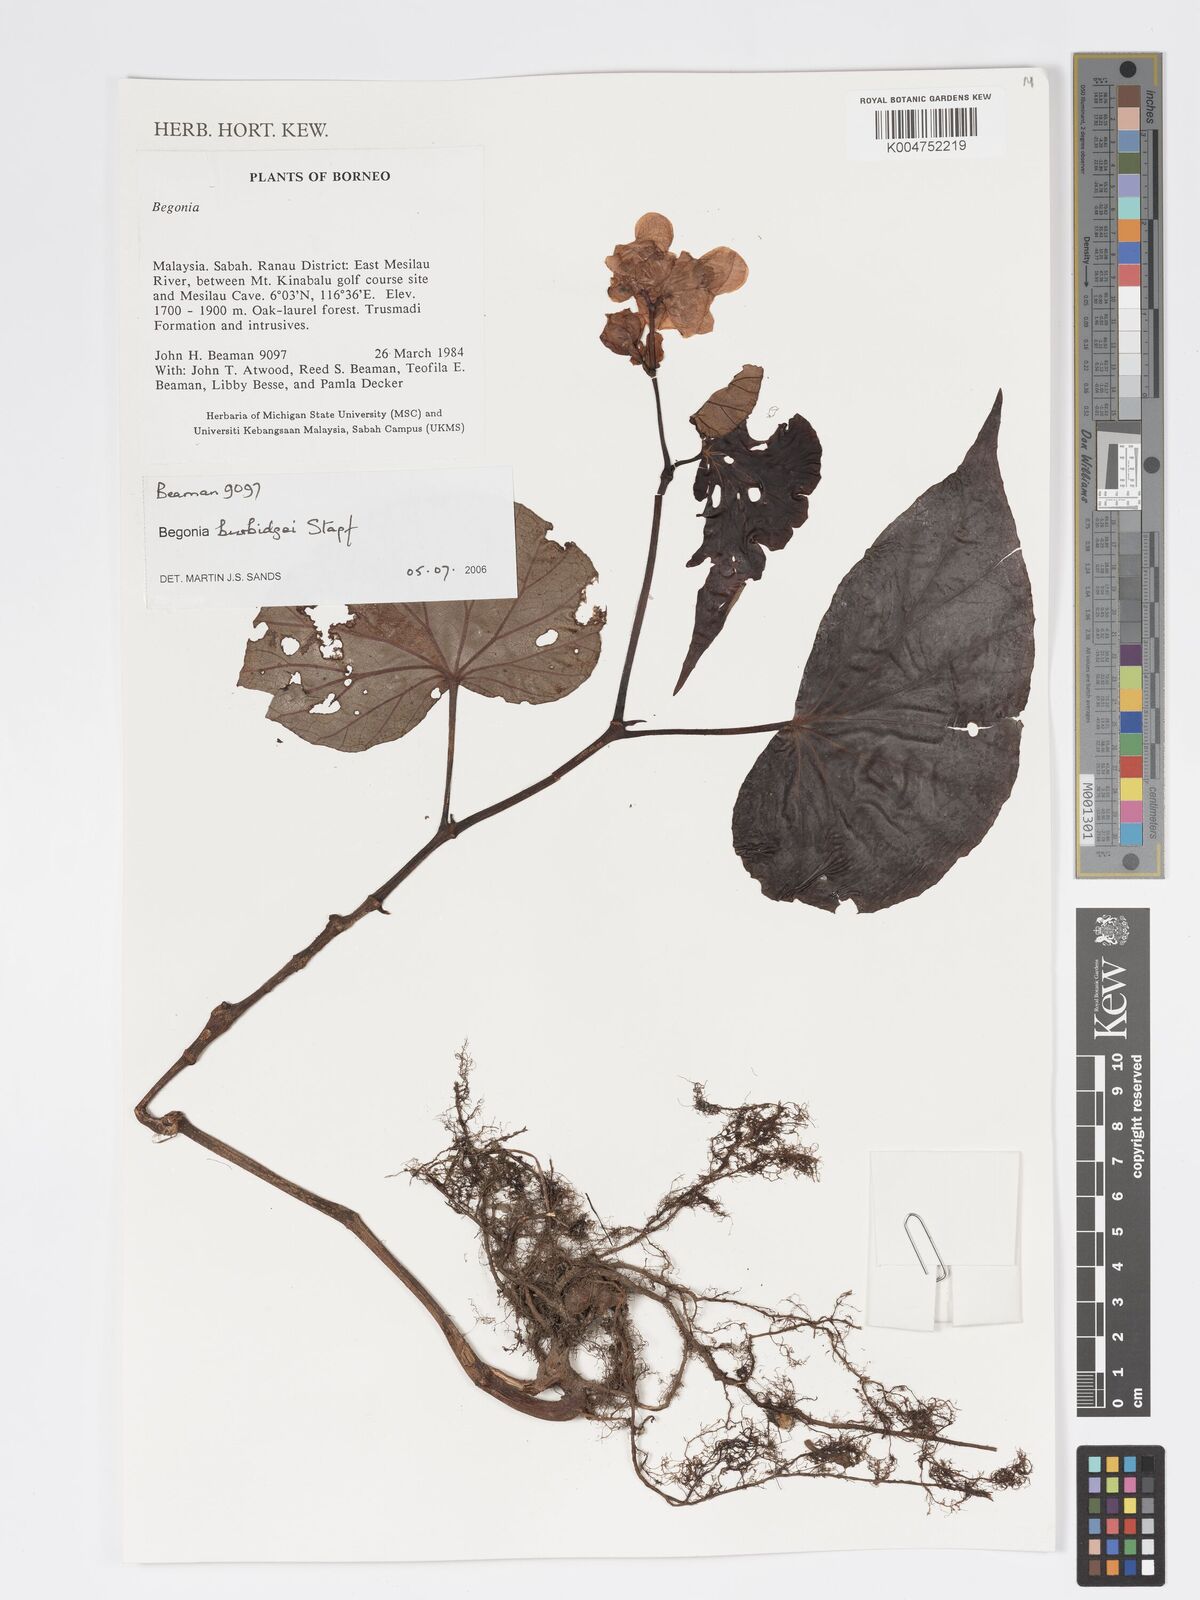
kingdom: Plantae
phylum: Tracheophyta
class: Magnoliopsida
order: Cucurbitales
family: Begoniaceae
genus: Begonia
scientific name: Begonia burbidgei
